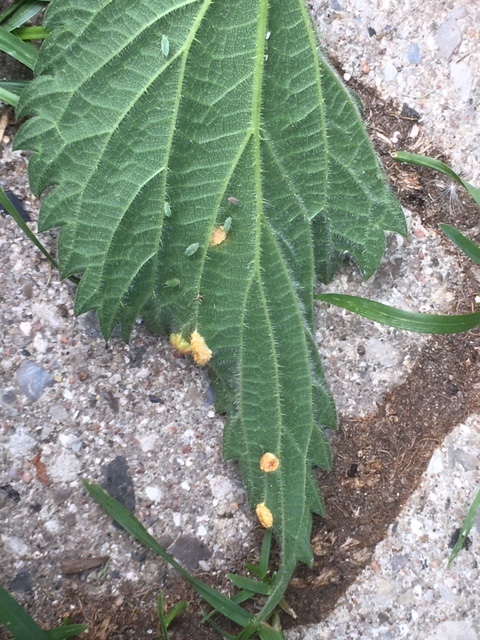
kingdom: Fungi
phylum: Basidiomycota
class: Pucciniomycetes
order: Pucciniales
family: Pucciniaceae
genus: Puccinia
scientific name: Puccinia urticata
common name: nældegalle-tvecellerust
